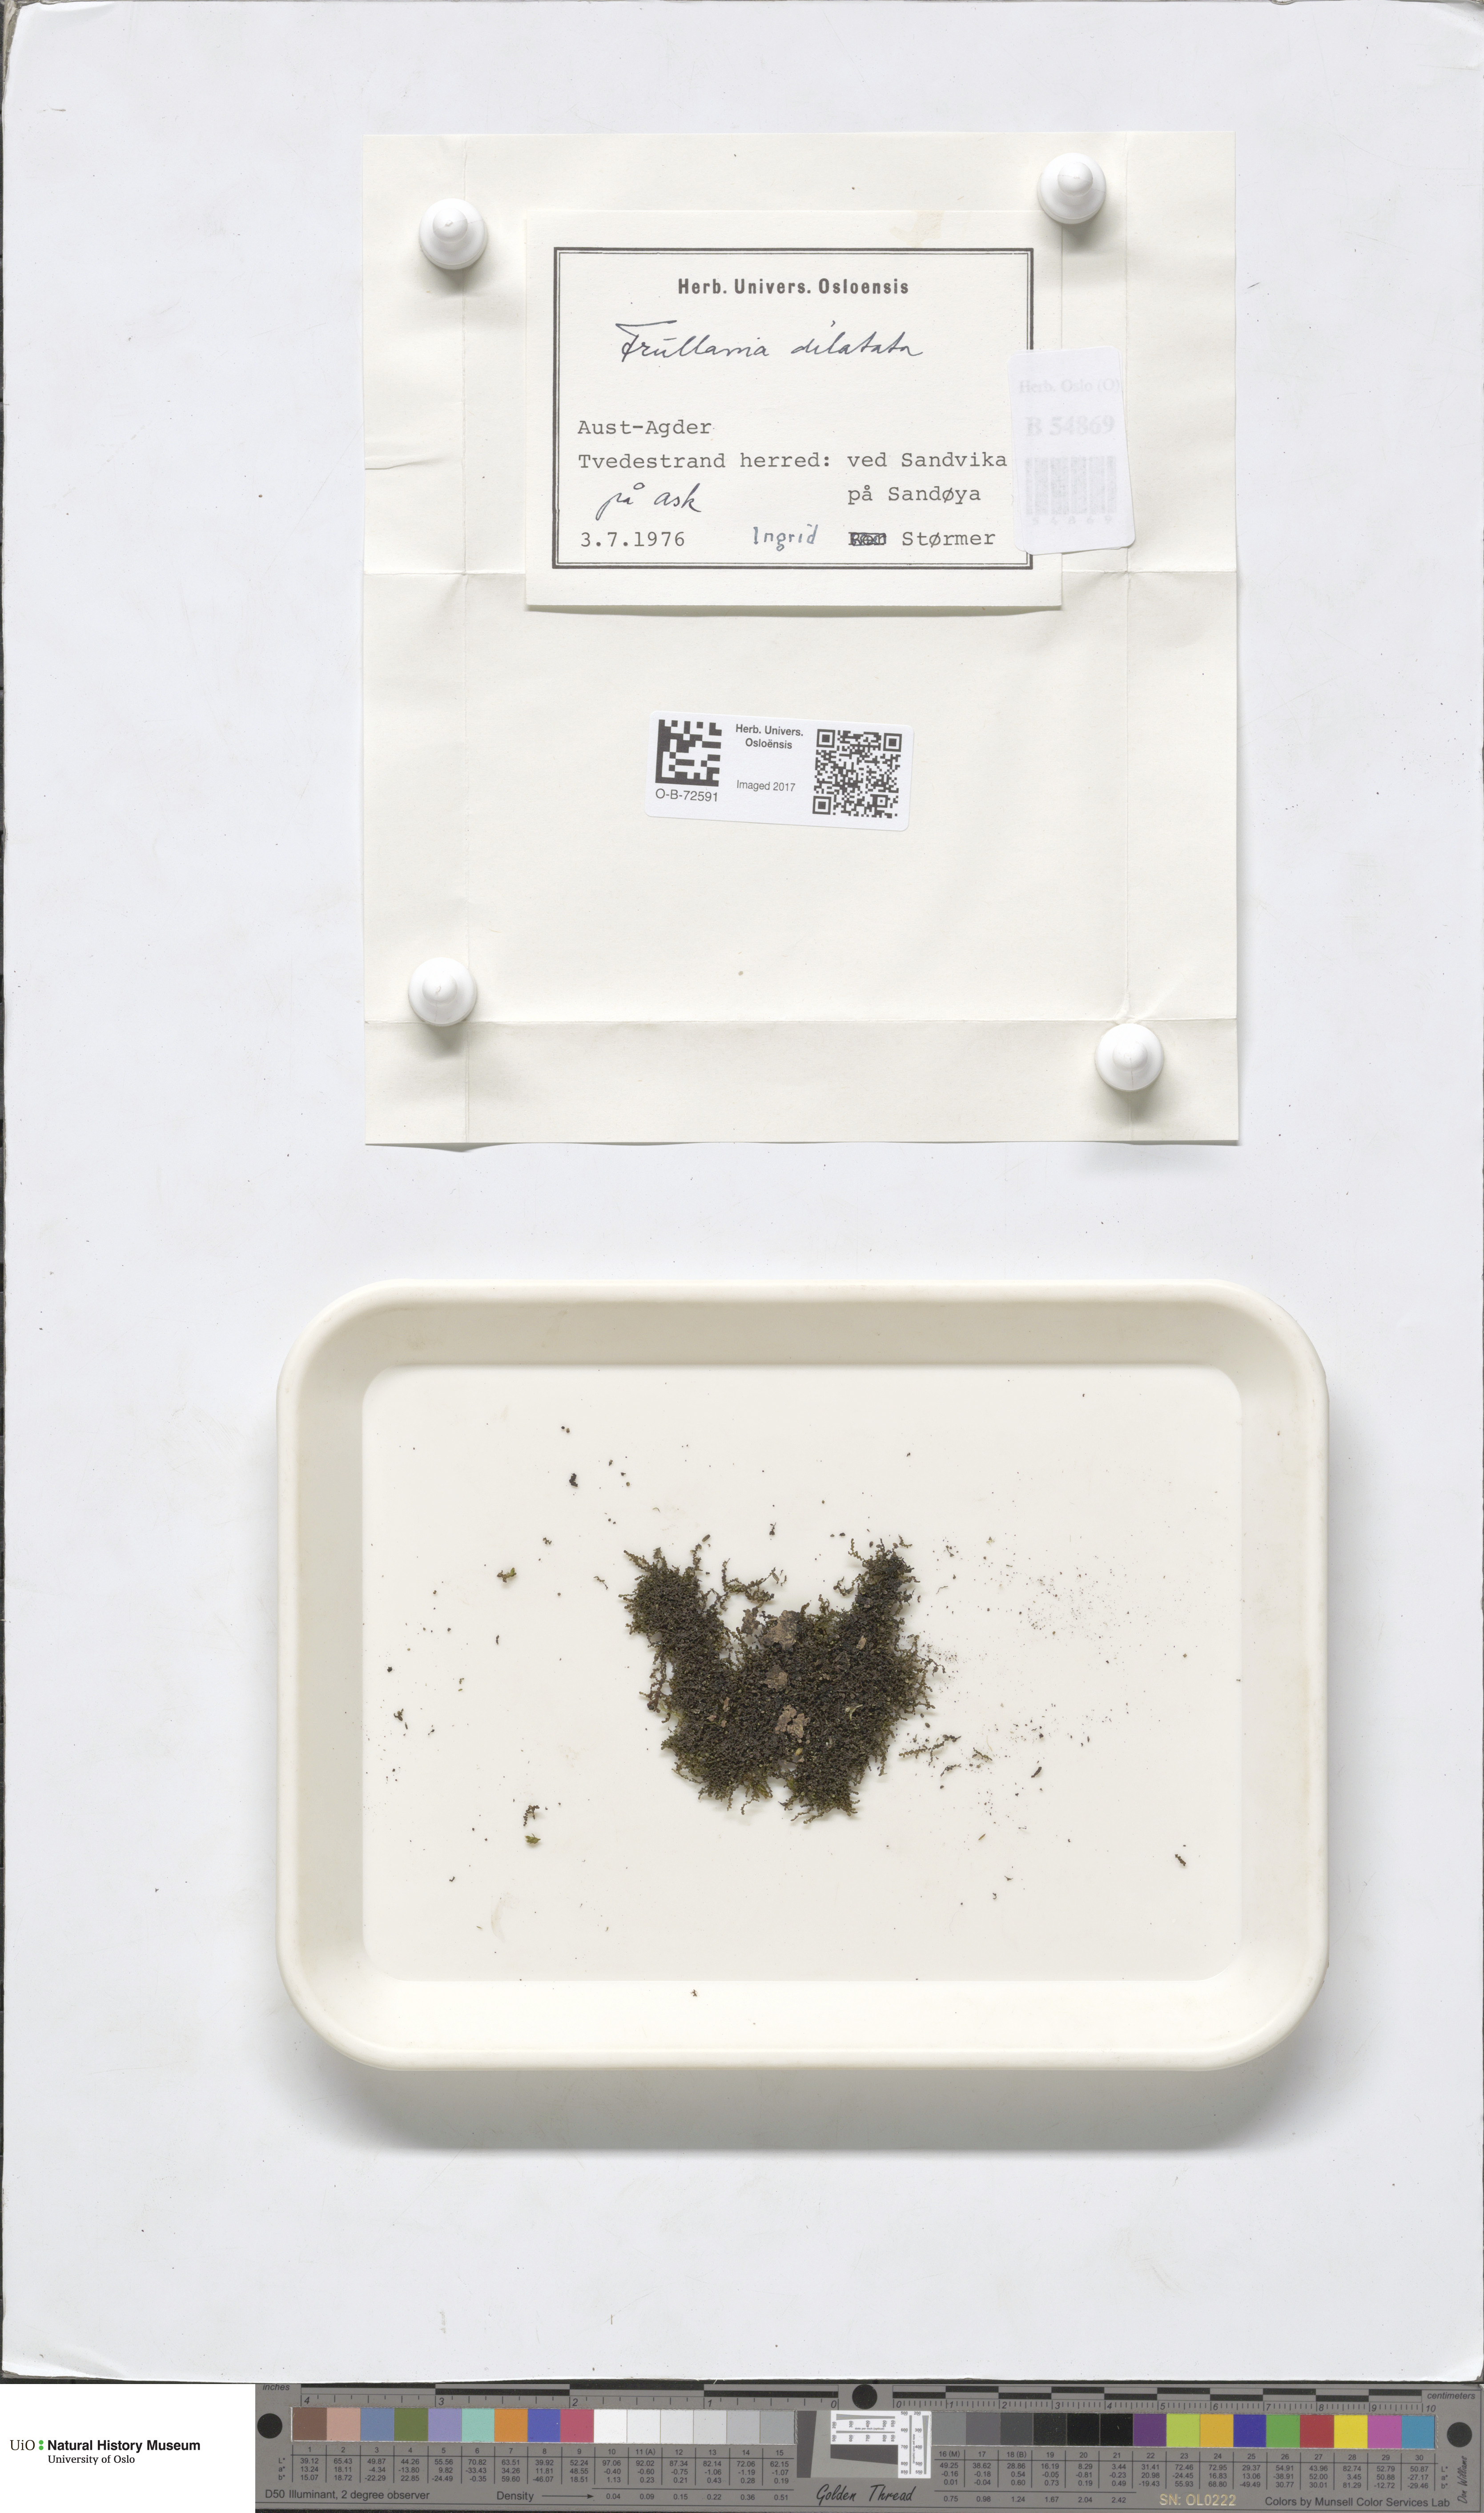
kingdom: Plantae
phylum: Marchantiophyta
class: Jungermanniopsida
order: Porellales
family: Frullaniaceae
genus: Frullania
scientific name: Frullania dilatata
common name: Dilated scalewort
